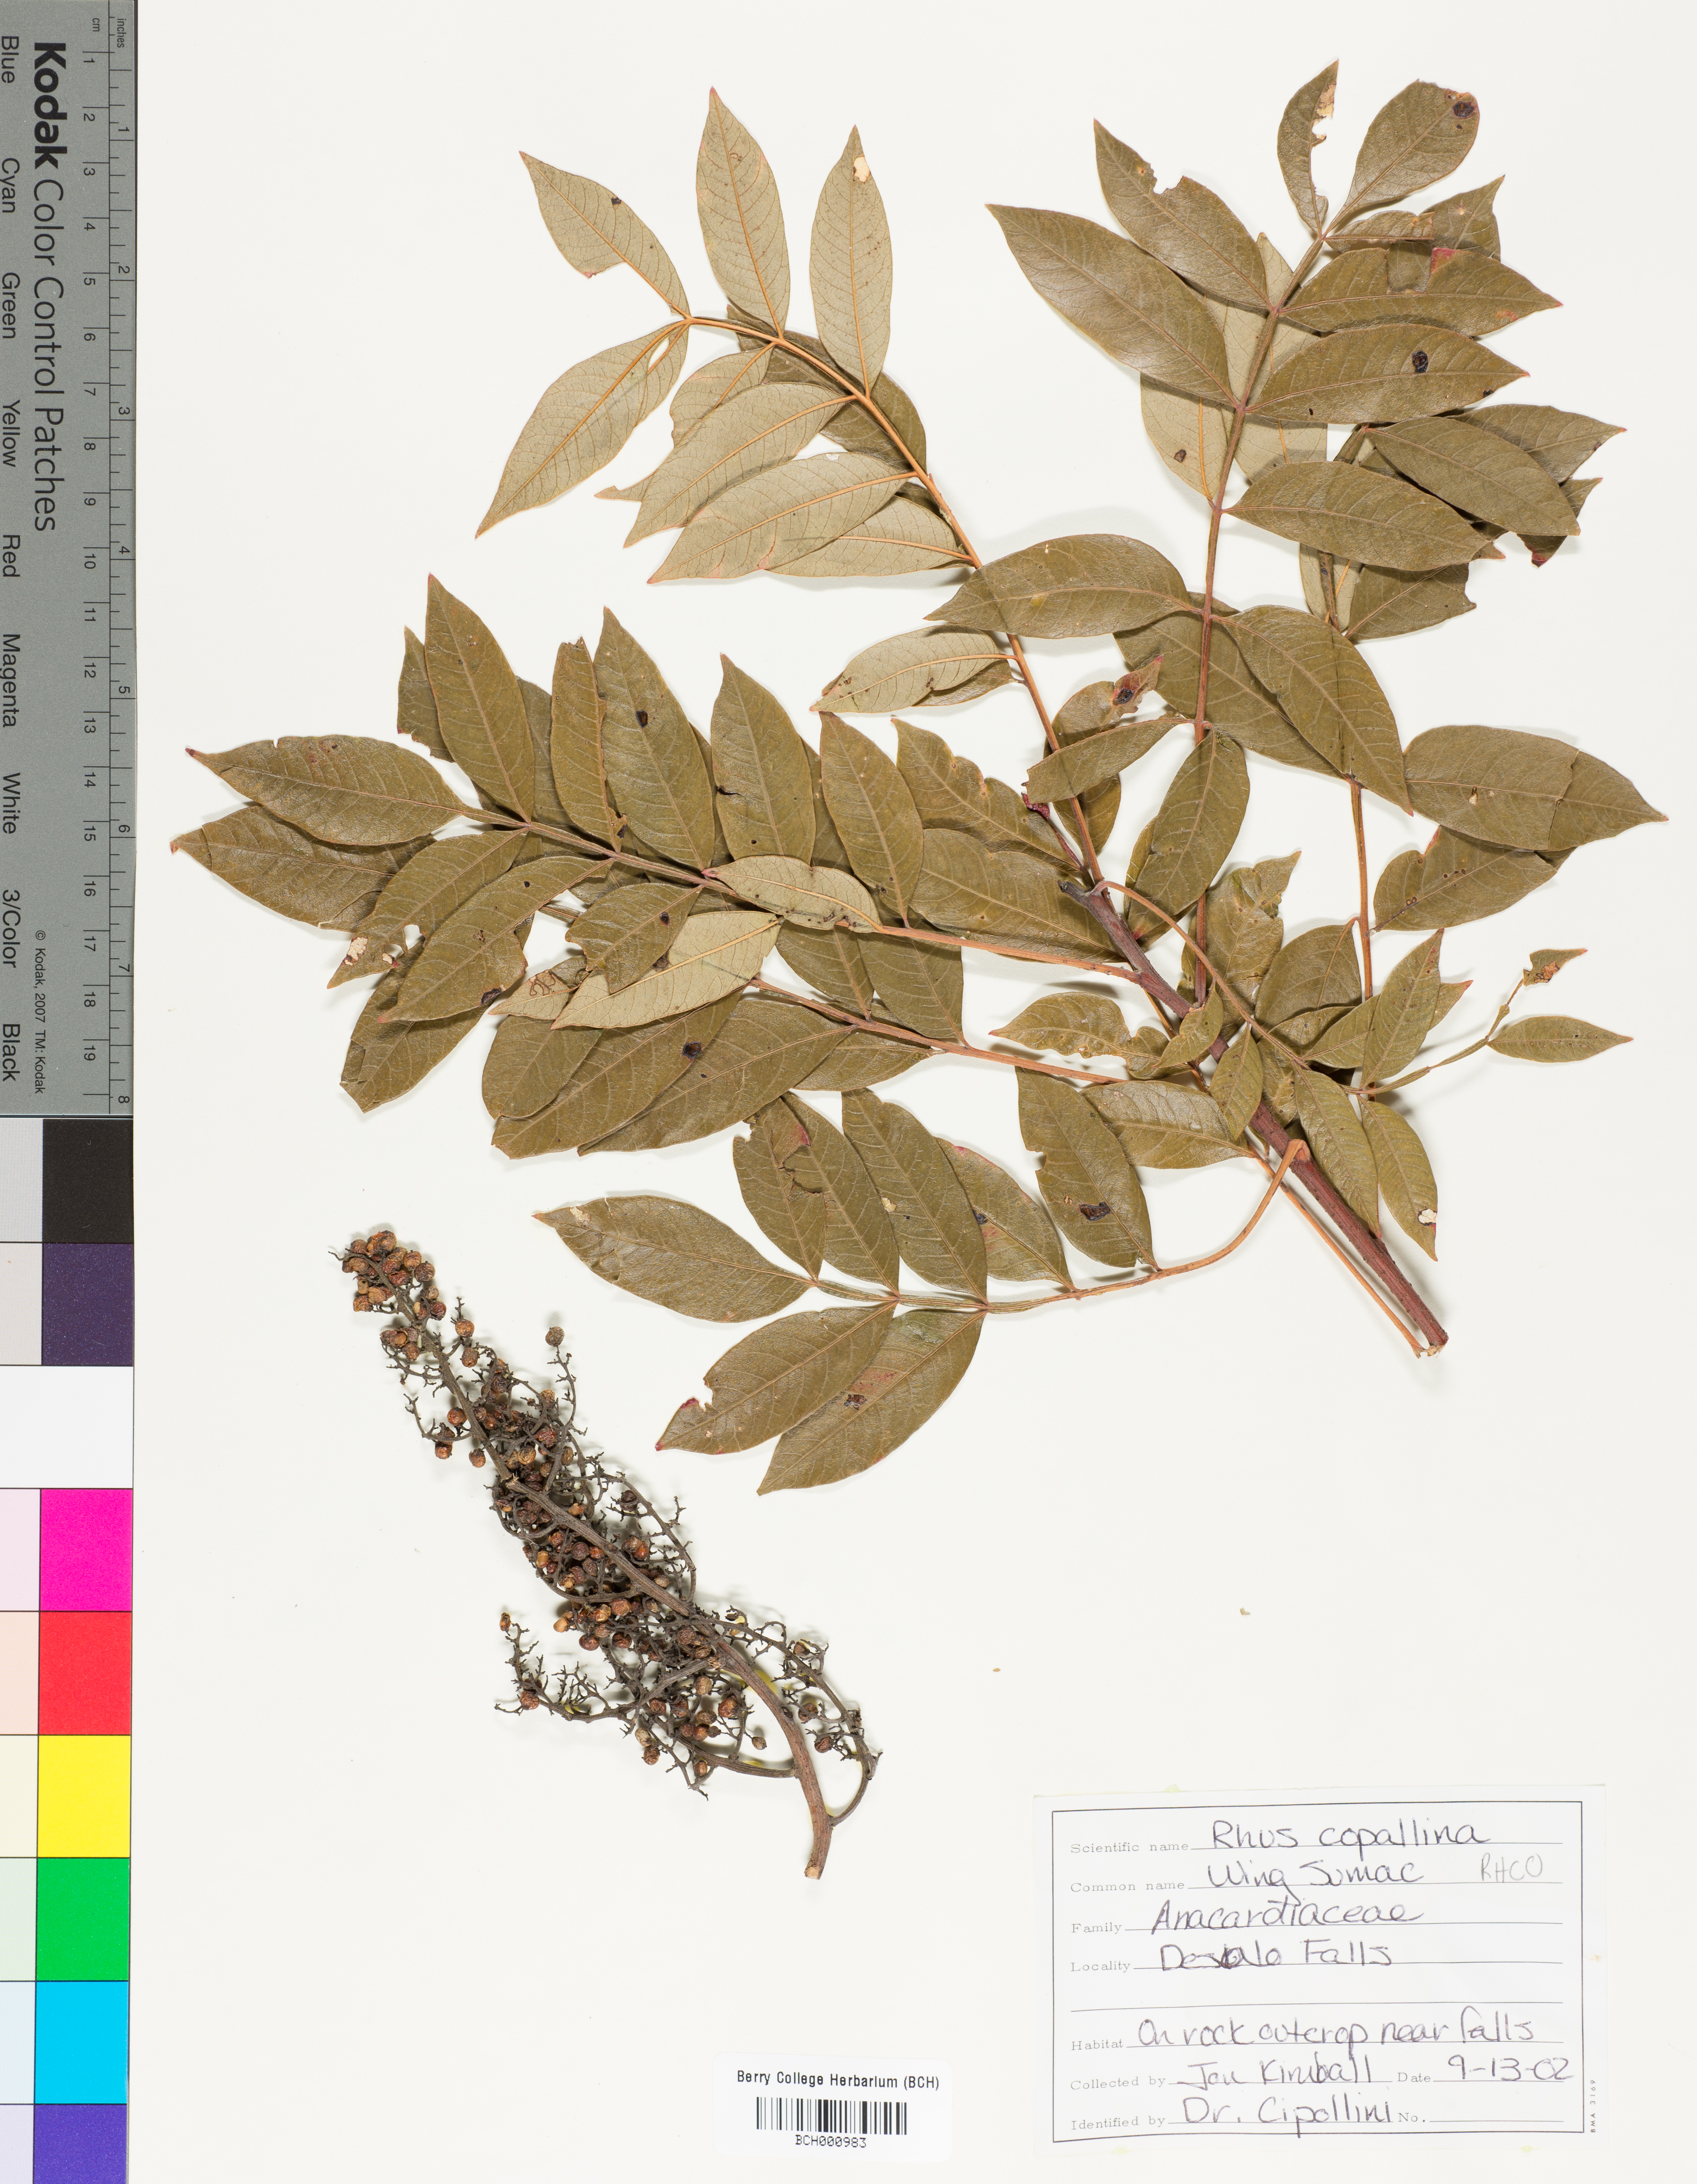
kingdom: Plantae
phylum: Tracheophyta
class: Magnoliopsida
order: Sapindales
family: Anacardiaceae
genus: Rhus
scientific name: Rhus copallina
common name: Shining sumac
